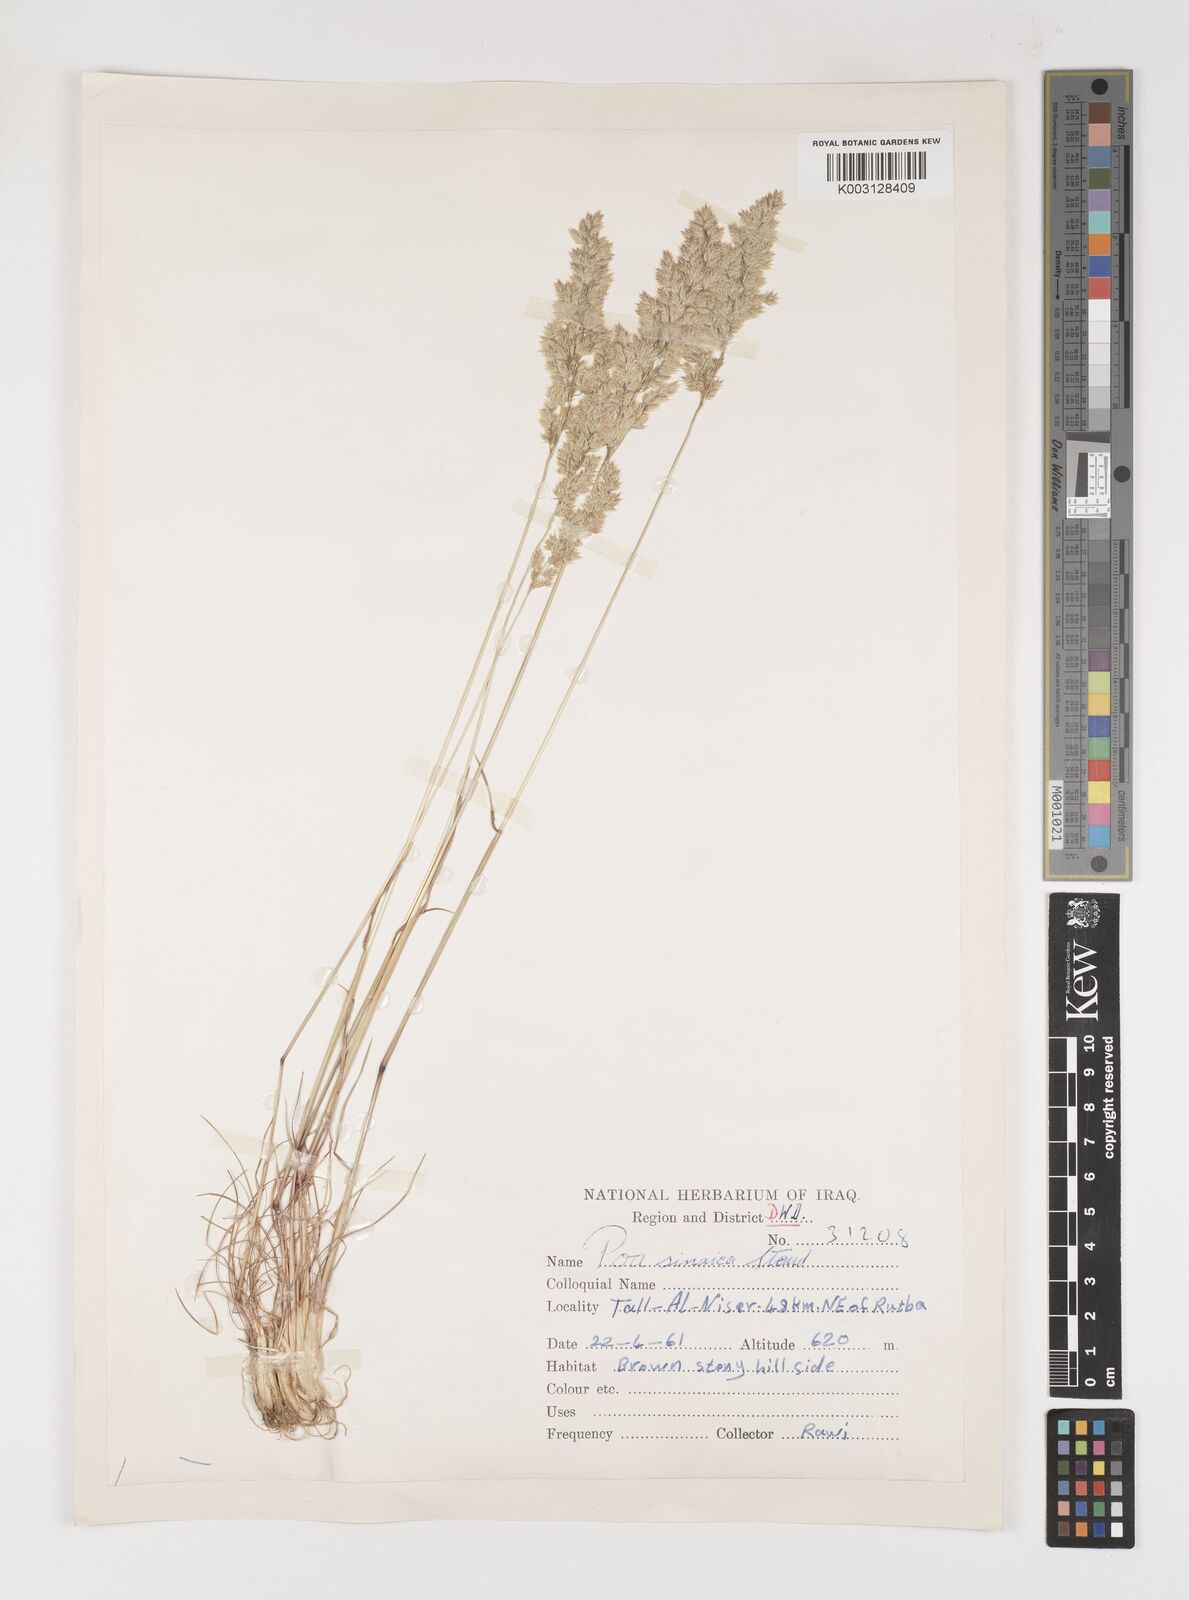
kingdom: Plantae
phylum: Tracheophyta
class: Liliopsida
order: Poales
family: Poaceae
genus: Poa
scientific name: Poa sinaica
